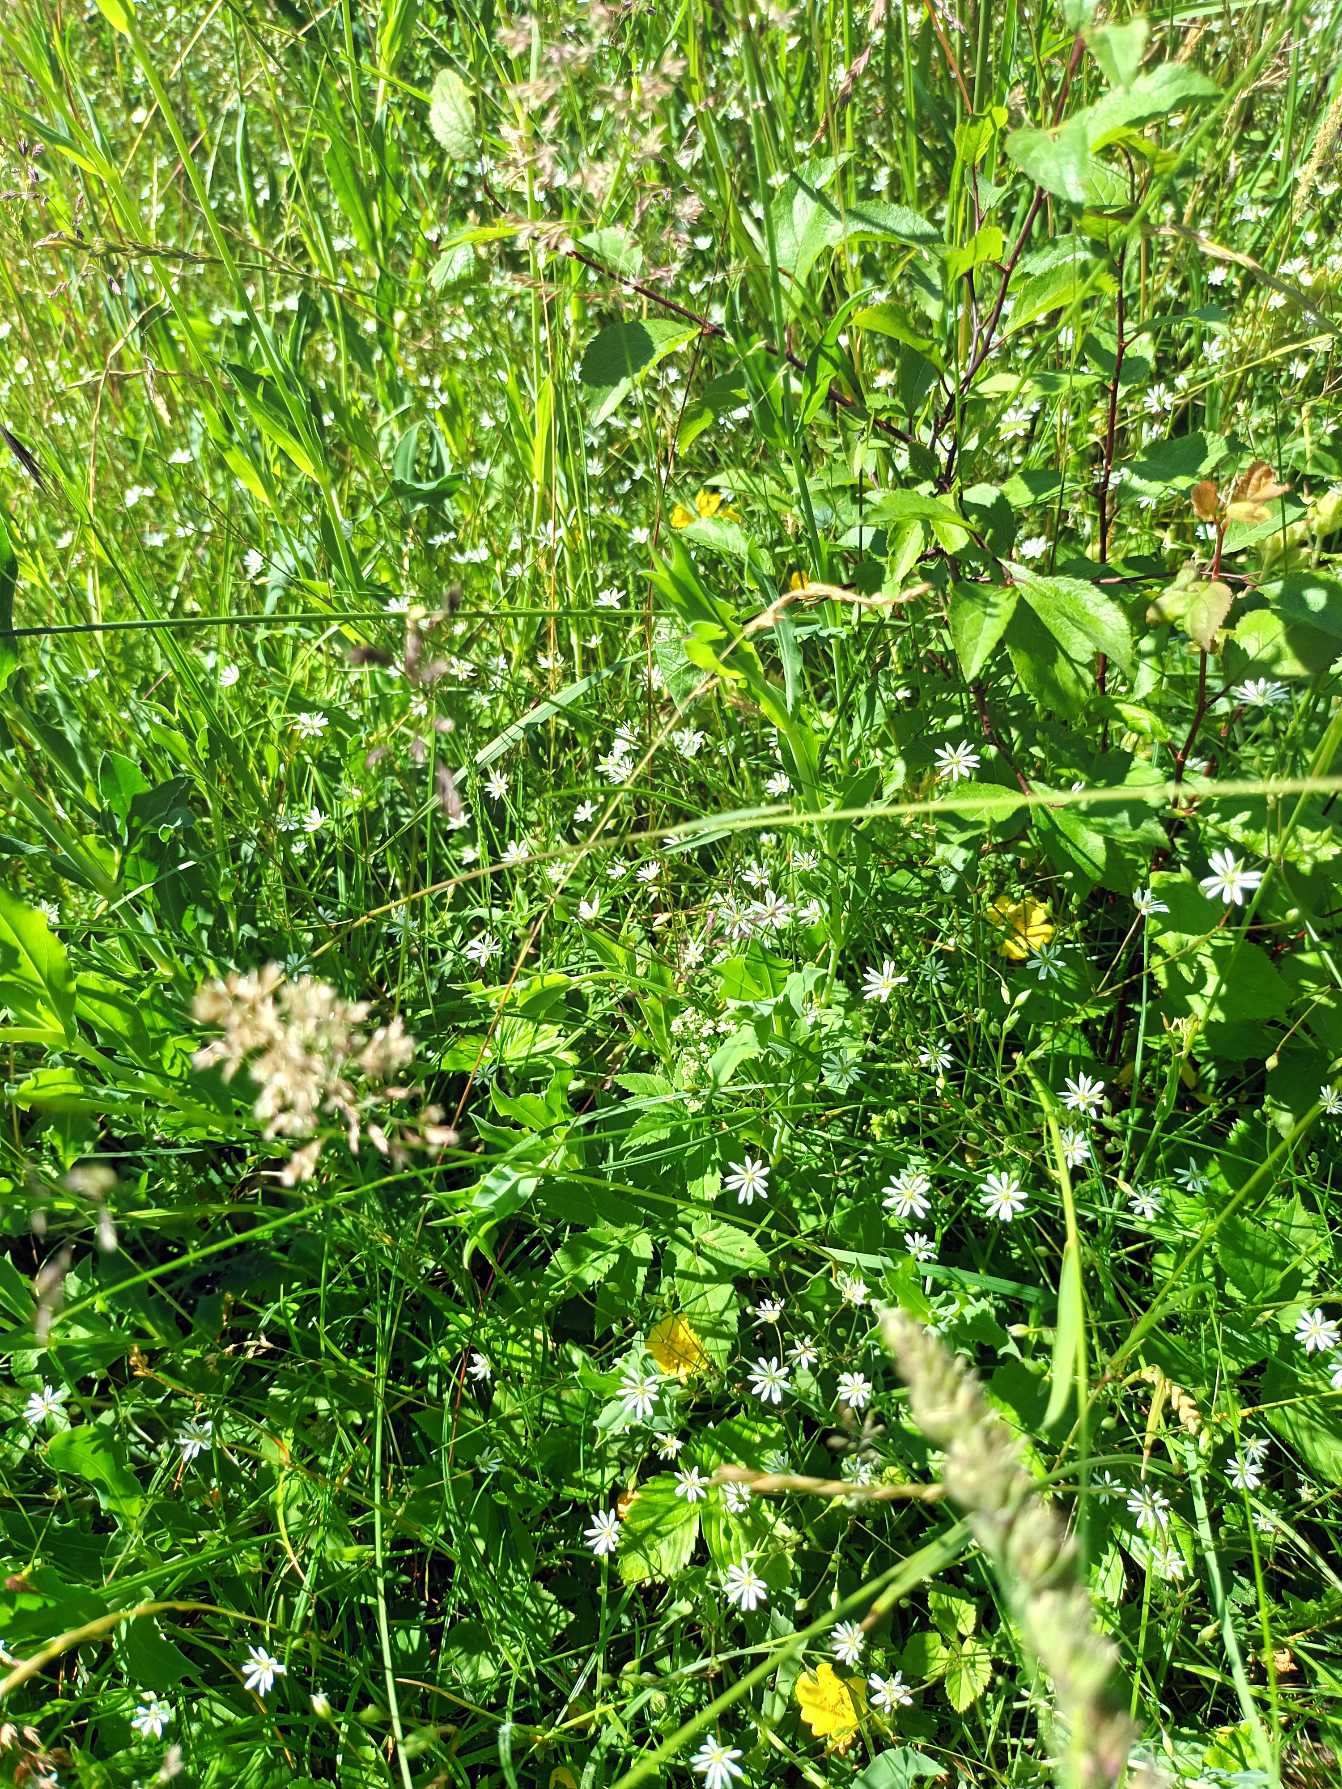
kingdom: Plantae
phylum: Tracheophyta
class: Magnoliopsida
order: Caryophyllales
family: Caryophyllaceae
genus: Stellaria
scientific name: Stellaria graminea
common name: Græsbladet fladstjerne
